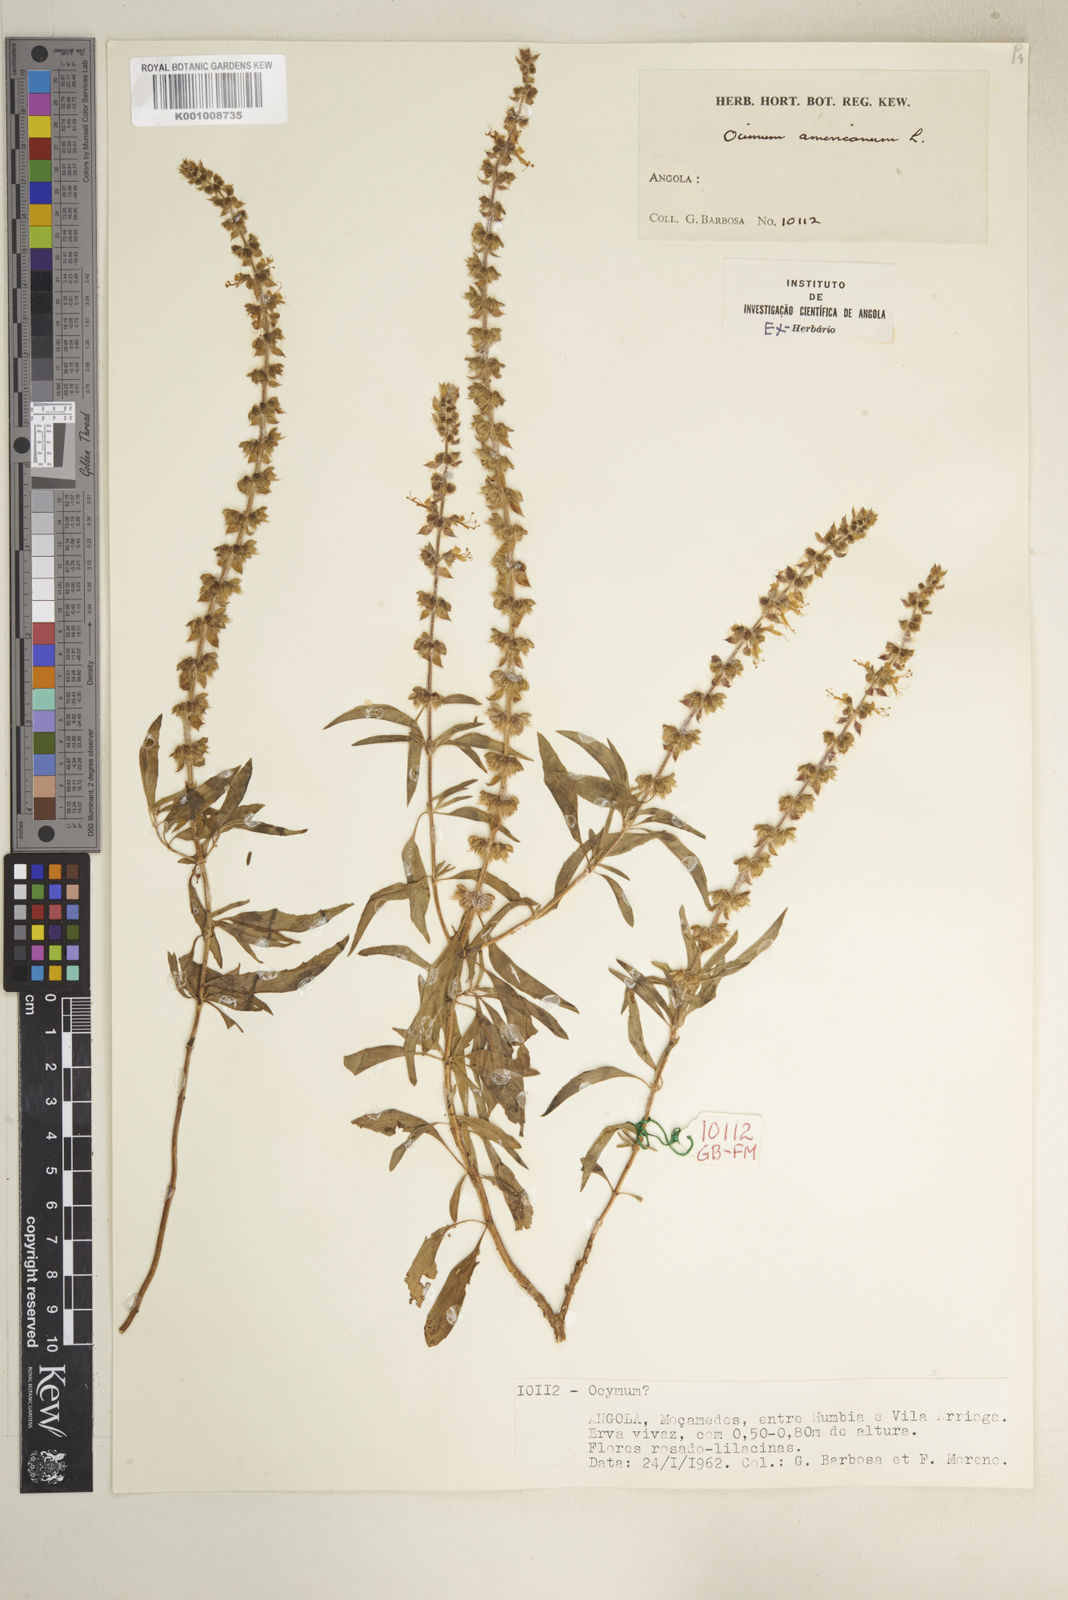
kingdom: Plantae
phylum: Tracheophyta
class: Magnoliopsida
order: Lamiales
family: Lamiaceae
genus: Ocimum
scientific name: Ocimum africanum
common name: Hoary basil
